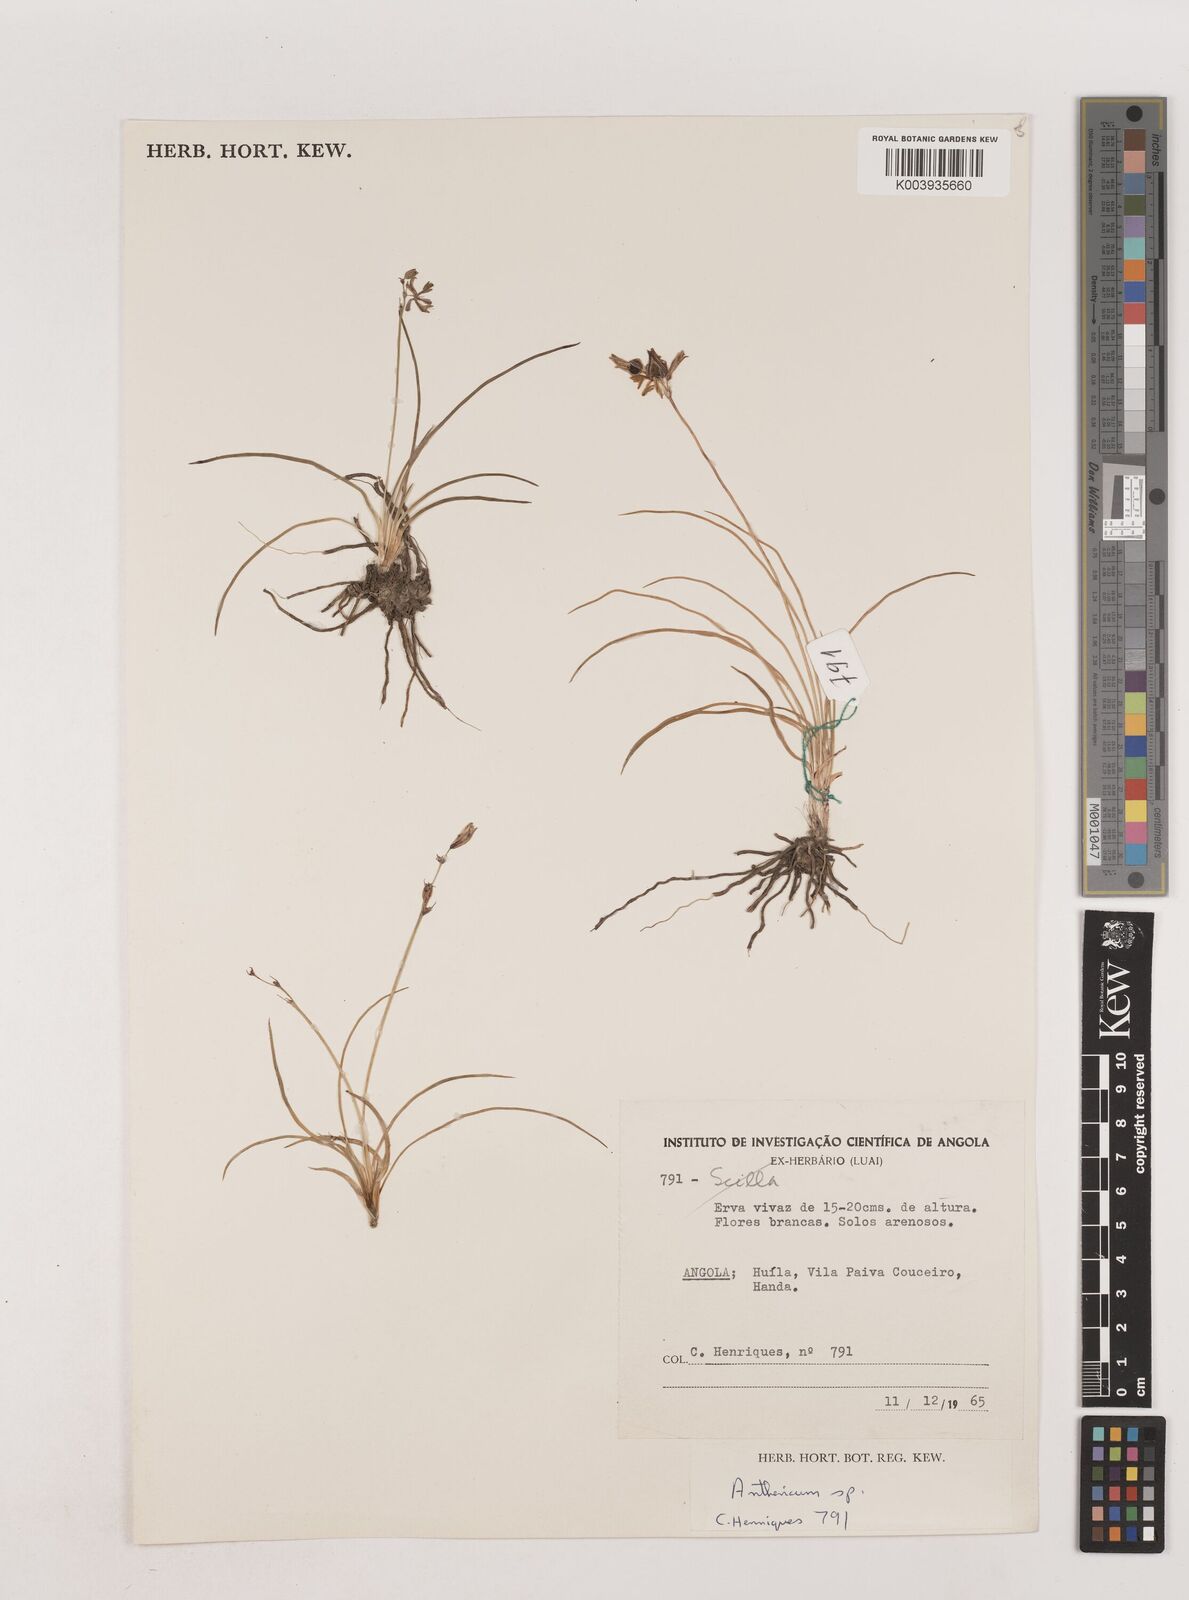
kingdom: Plantae
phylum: Tracheophyta
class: Liliopsida
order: Asparagales
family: Asparagaceae
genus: Chlorophytum
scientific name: Chlorophytum
